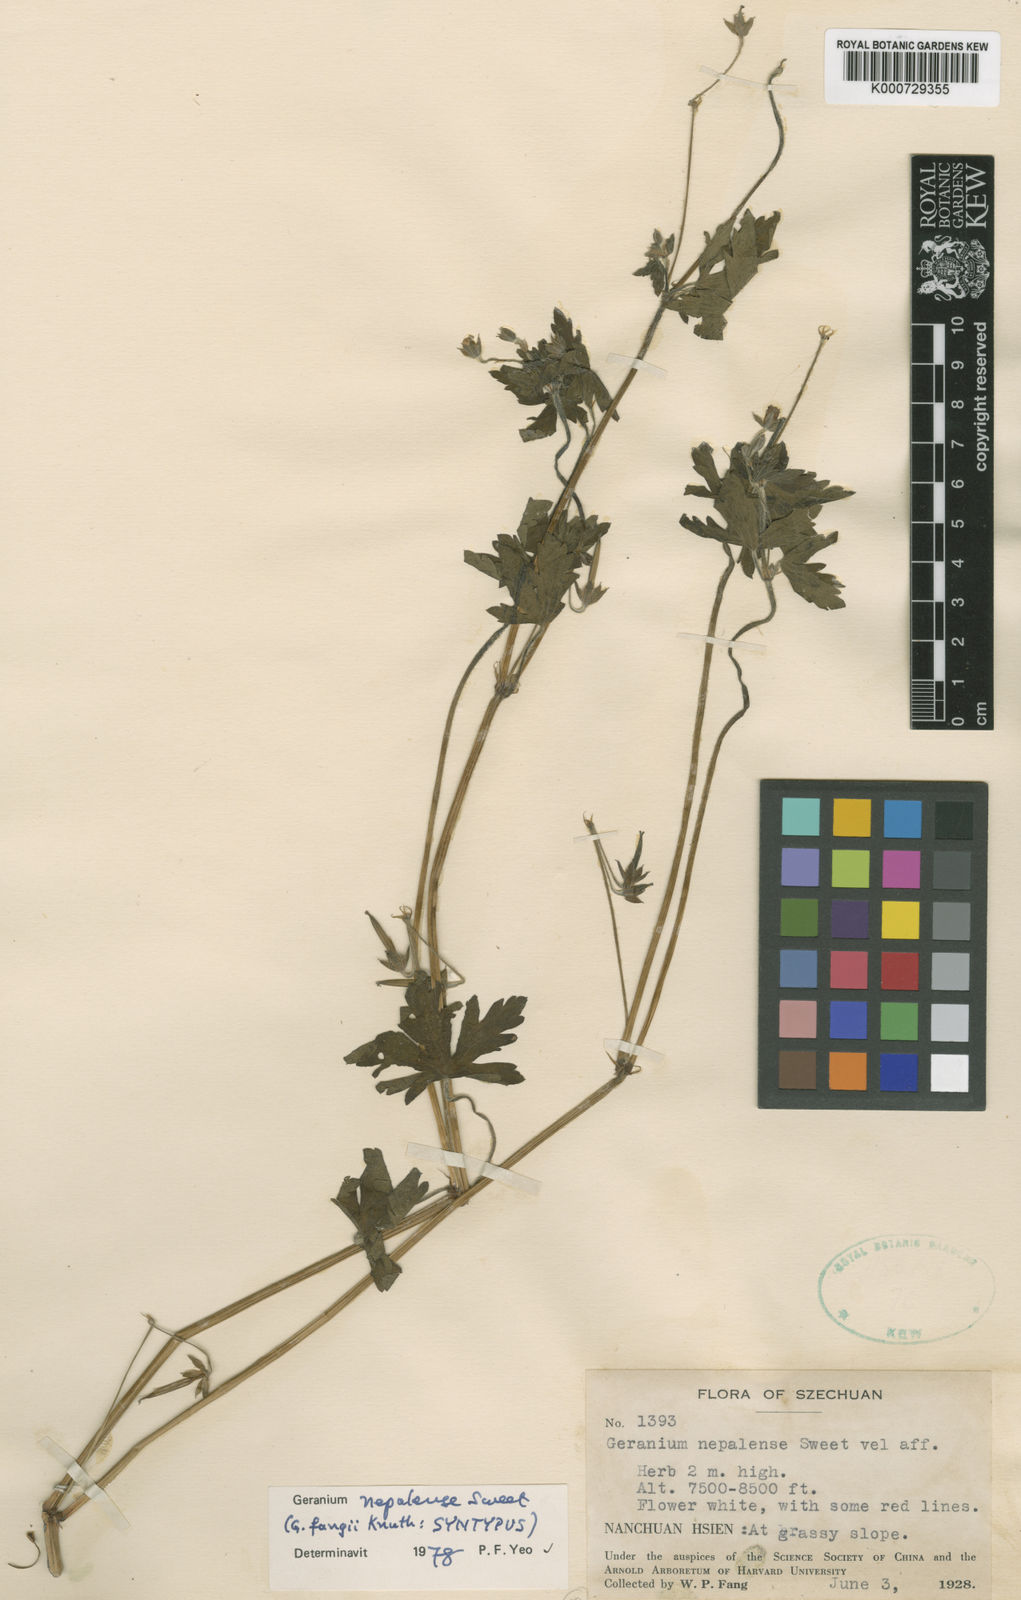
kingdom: Plantae
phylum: Tracheophyta
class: Magnoliopsida
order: Geraniales
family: Geraniaceae
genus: Geranium
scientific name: Geranium nepalense
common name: Nepalese crane's-bill
